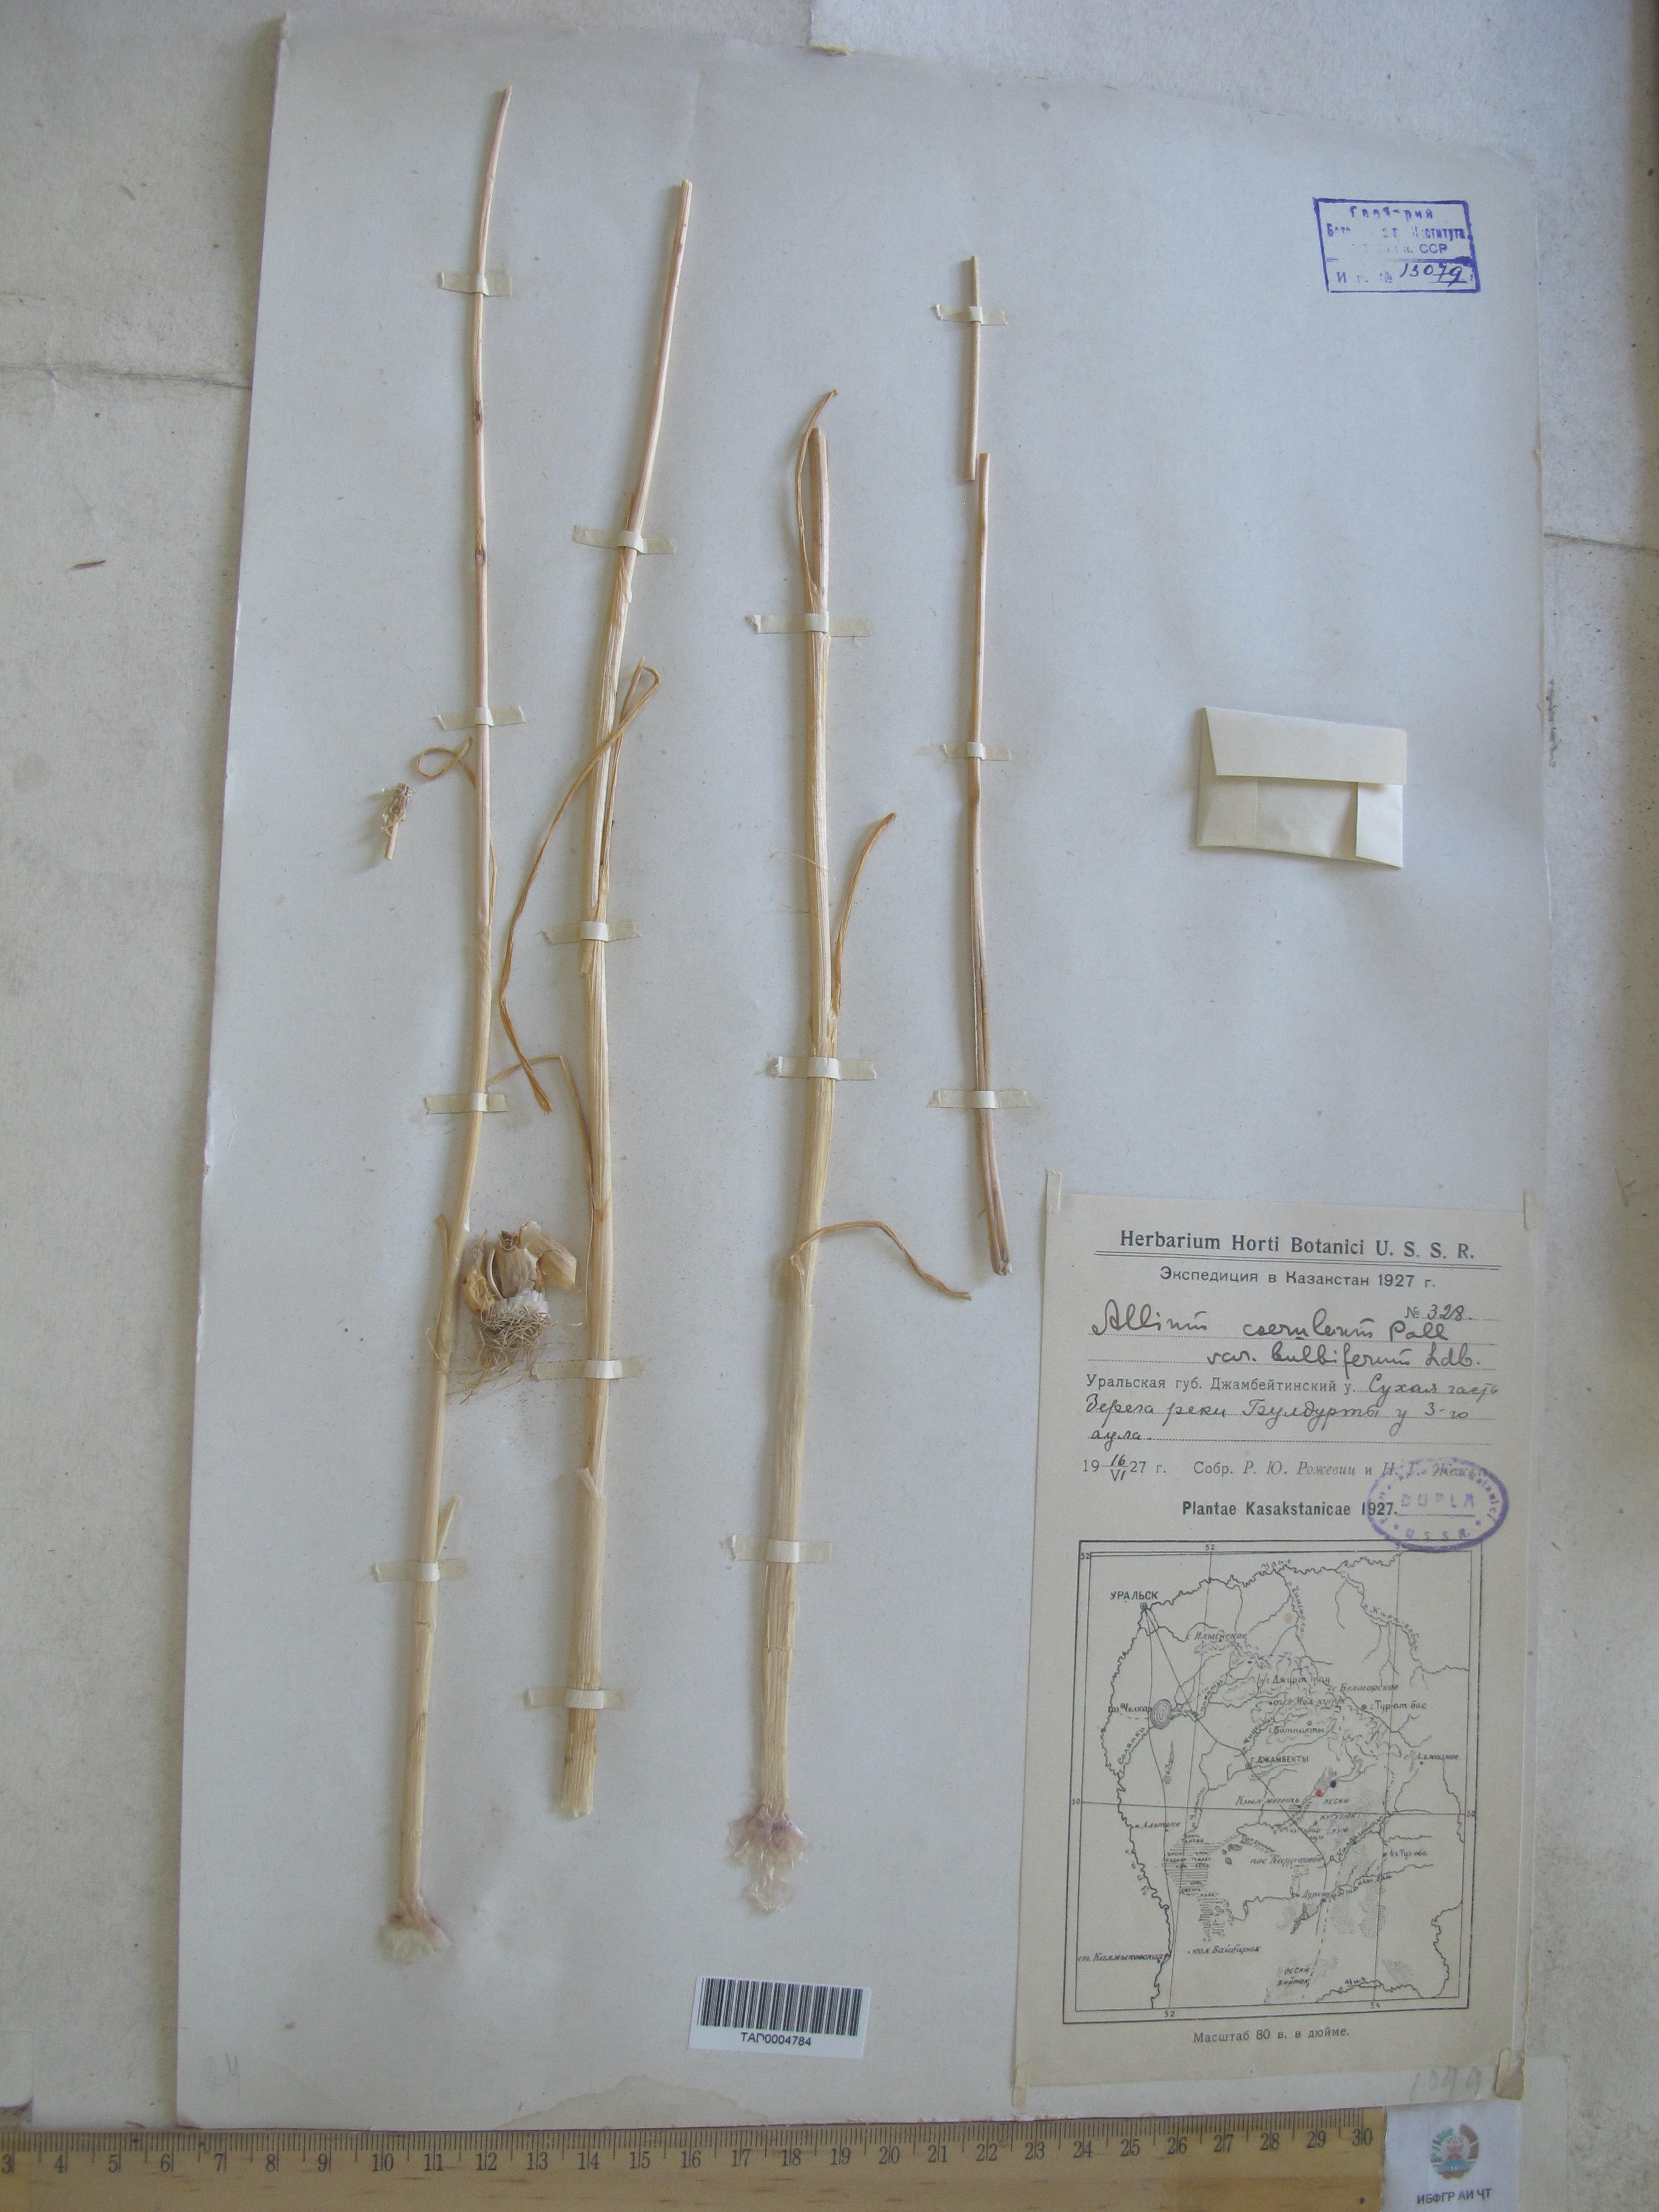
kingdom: Plantae
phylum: Tracheophyta
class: Liliopsida
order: Asparagales
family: Amaryllidaceae
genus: Allium
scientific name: Allium caeruleum
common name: Blue-of-the-heavens
